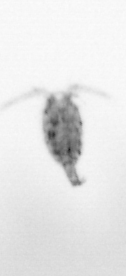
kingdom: Animalia
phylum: Arthropoda
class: Copepoda
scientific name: Copepoda
